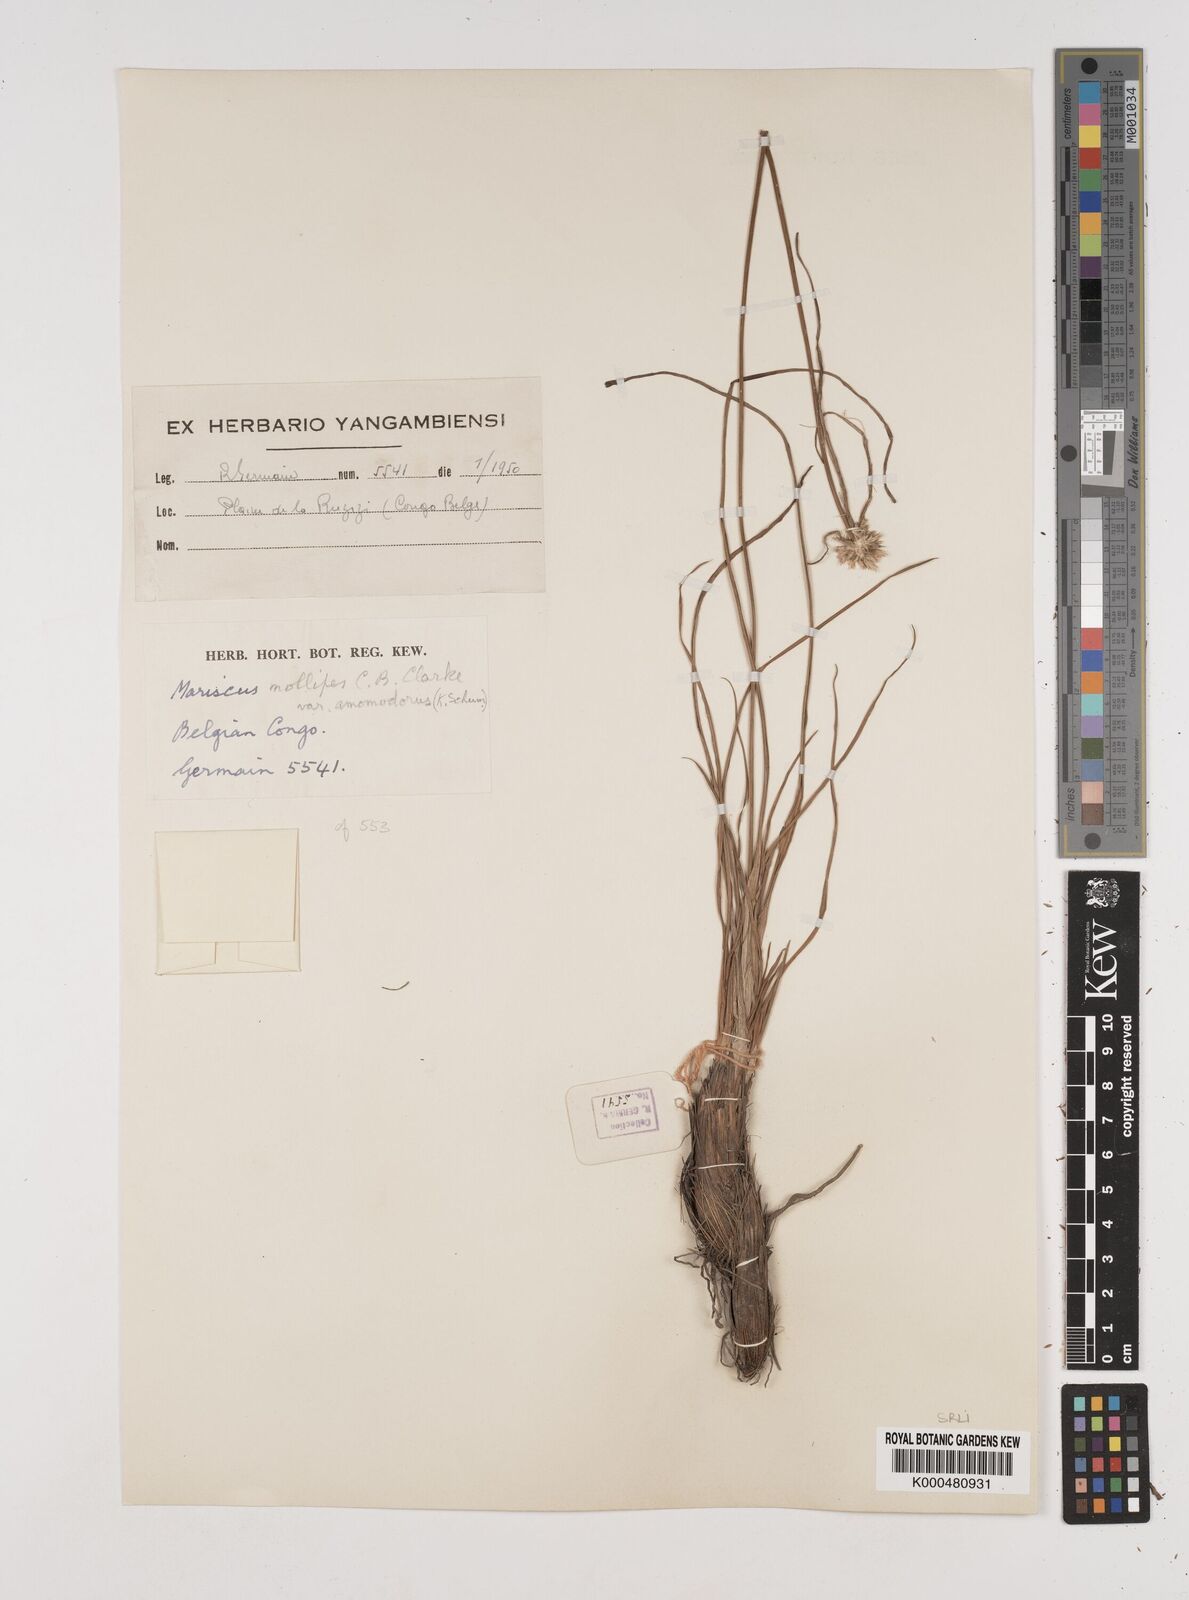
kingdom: Plantae
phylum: Tracheophyta
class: Liliopsida
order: Poales
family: Cyperaceae
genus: Mariscus
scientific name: Mariscus
